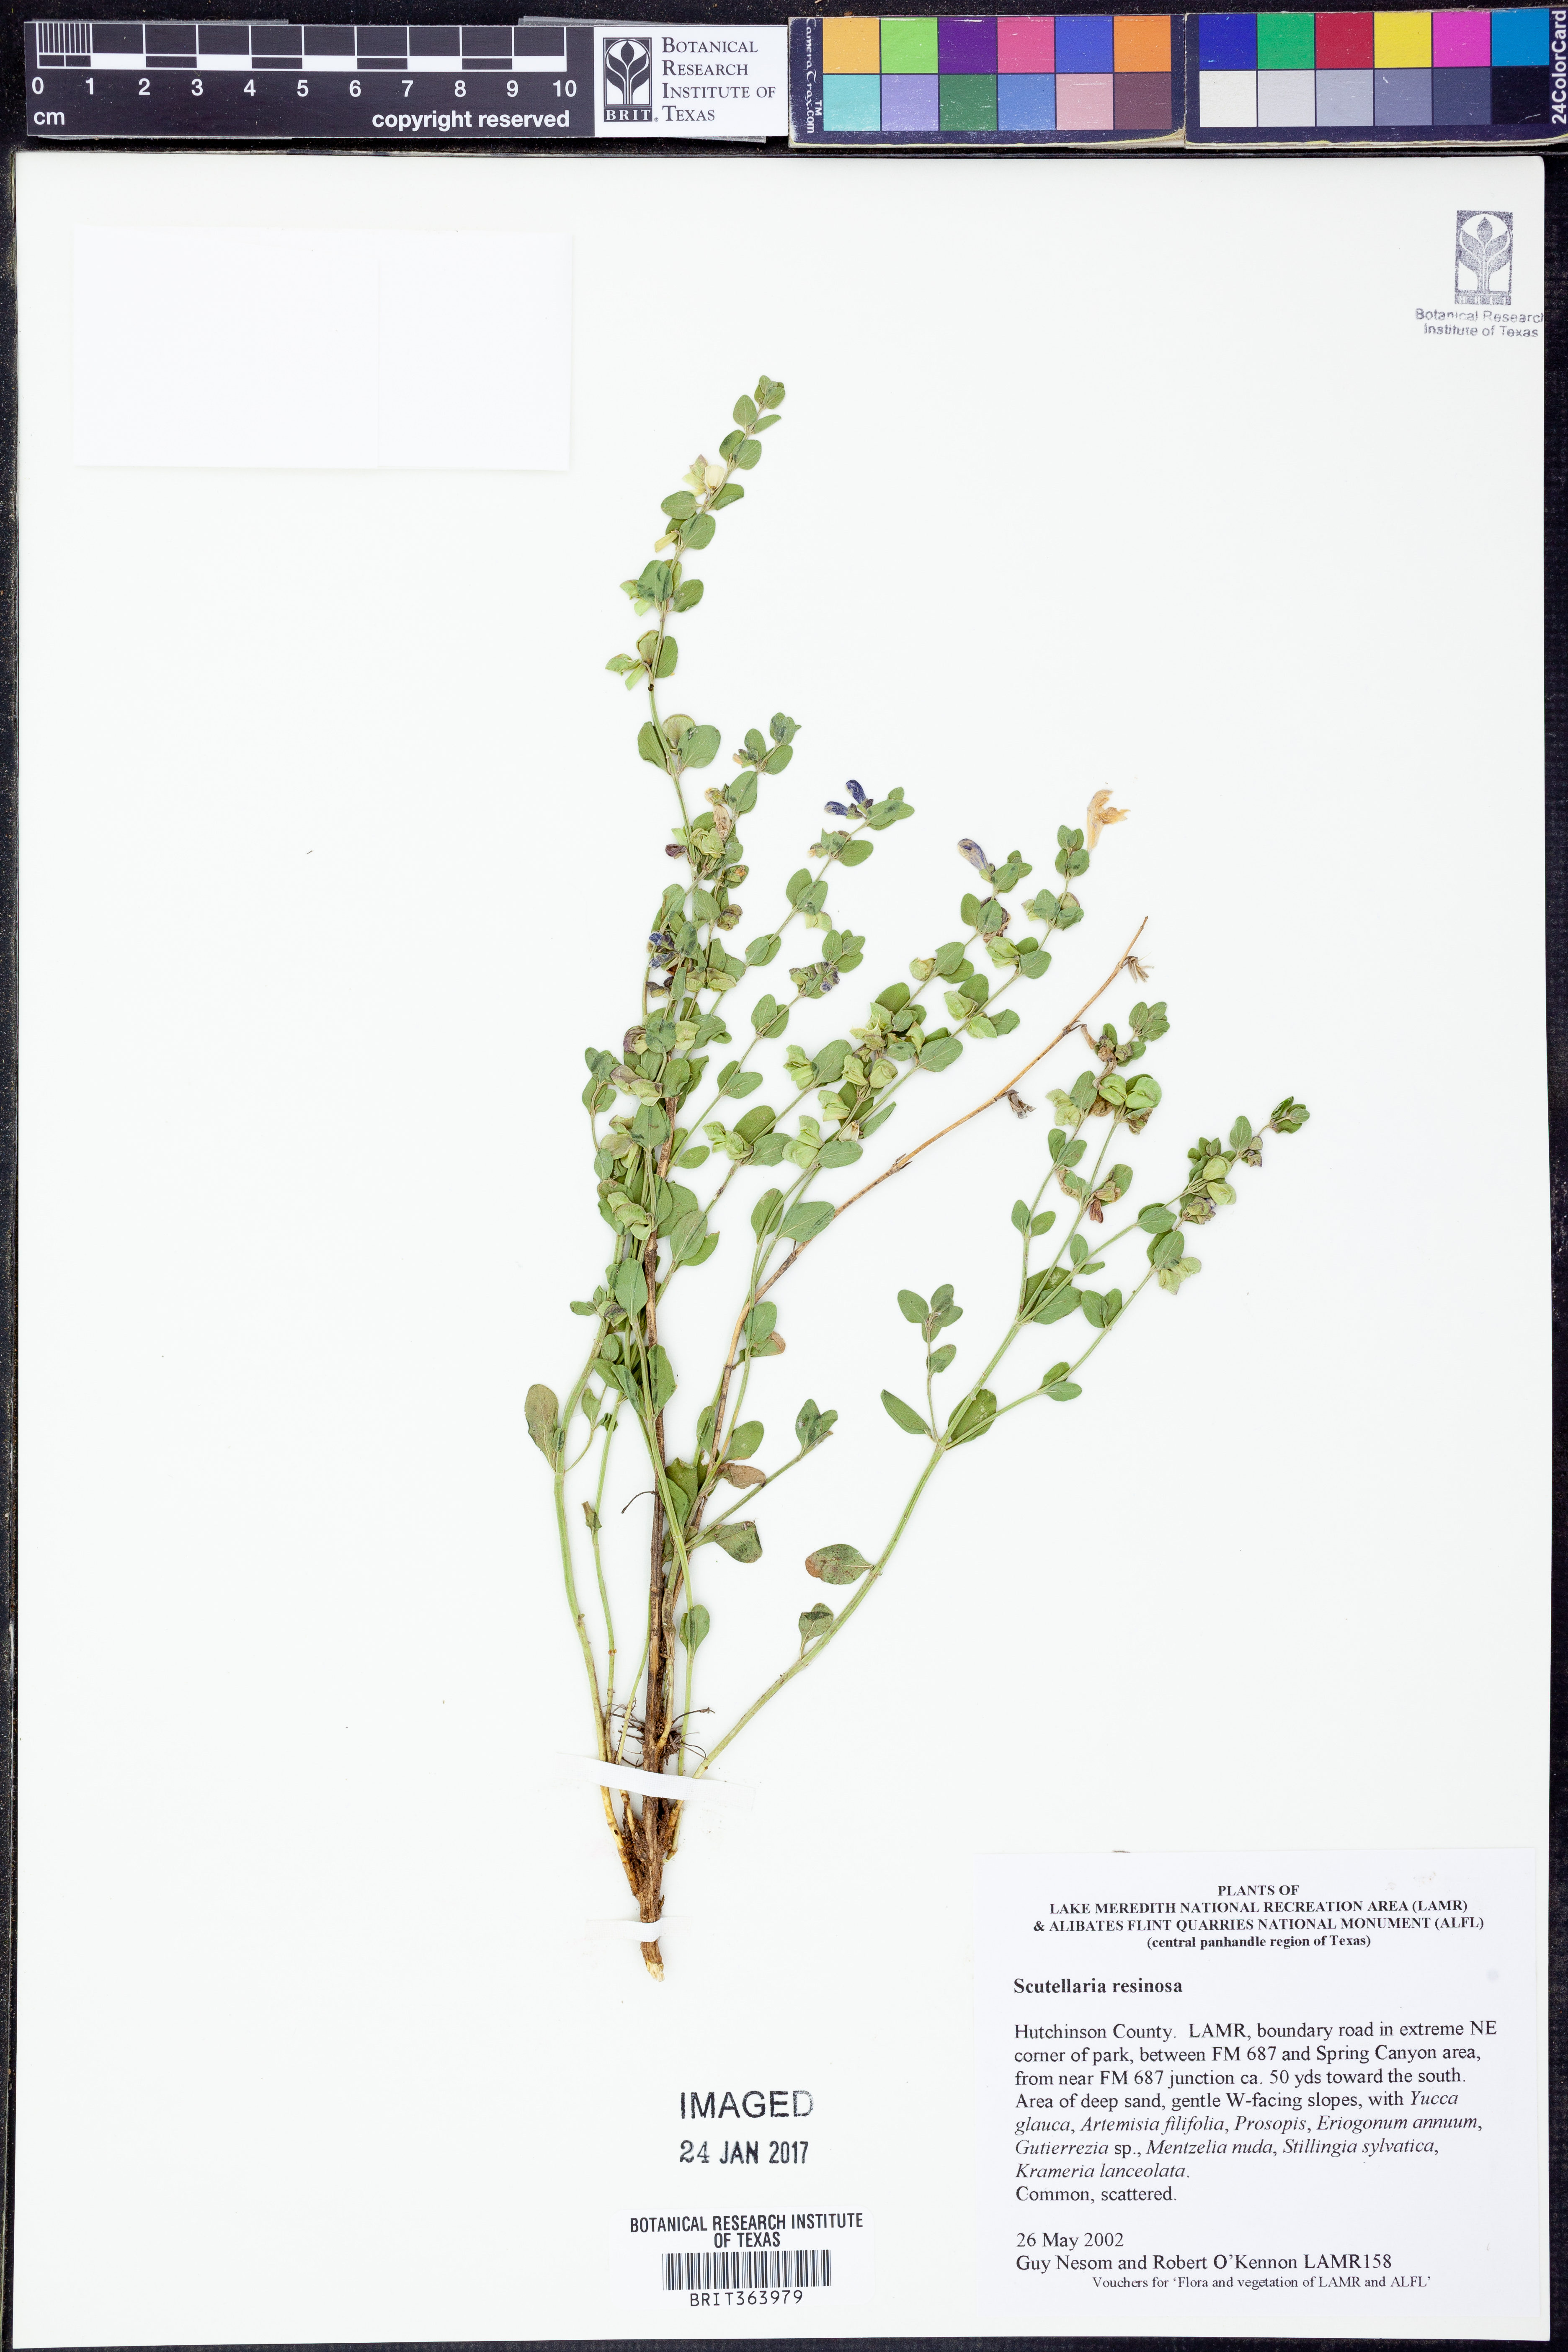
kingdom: Plantae
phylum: Tracheophyta
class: Magnoliopsida
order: Lamiales
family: Lamiaceae
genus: Scutellaria
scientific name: Scutellaria resinosa
